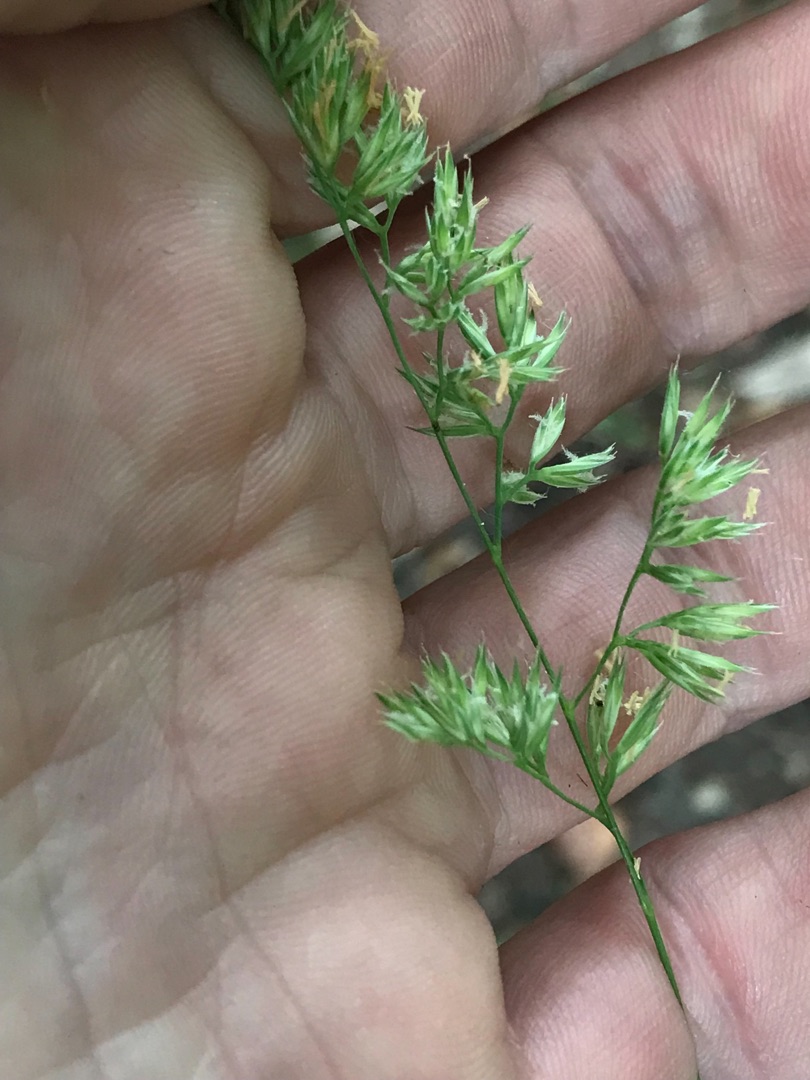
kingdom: Plantae
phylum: Tracheophyta
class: Liliopsida
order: Poales
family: Poaceae
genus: Dactylis
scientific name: Dactylis glomerata
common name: Skov-hundegræs
